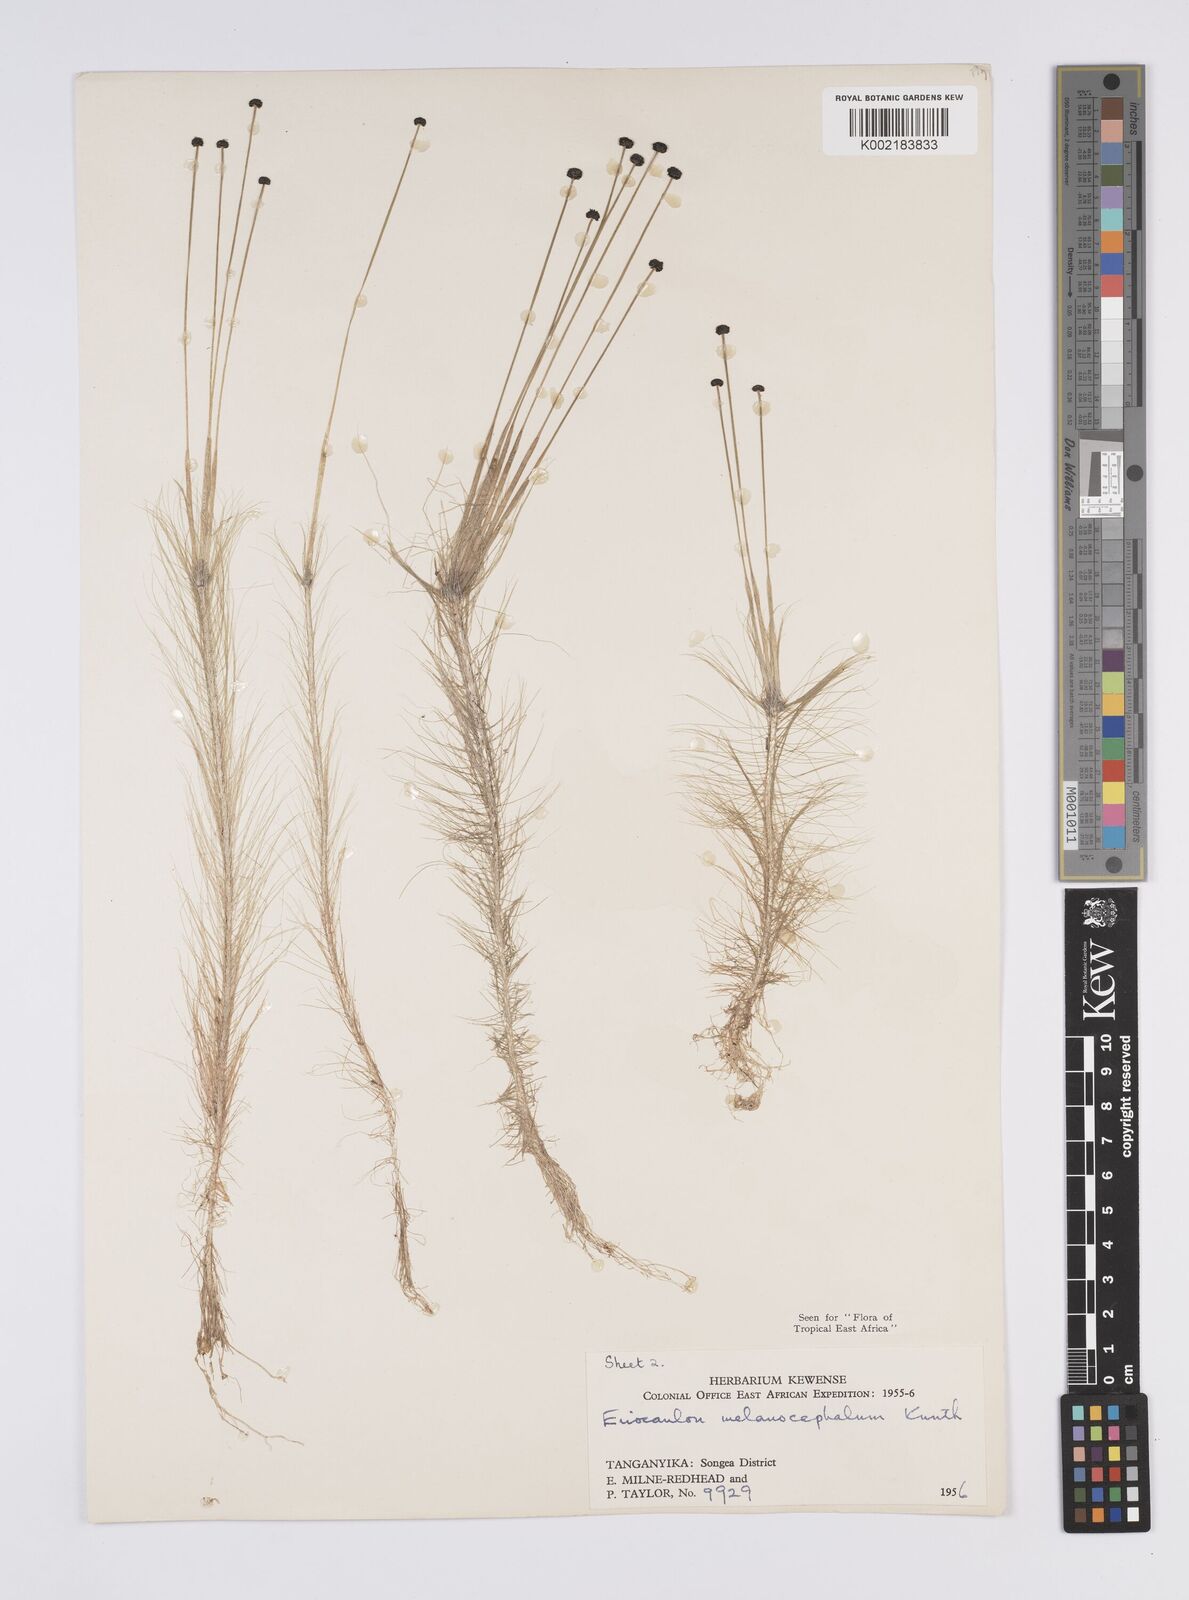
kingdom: Plantae
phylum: Tracheophyta
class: Liliopsida
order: Poales
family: Eriocaulaceae
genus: Eriocaulon
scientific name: Eriocaulon setaceum
